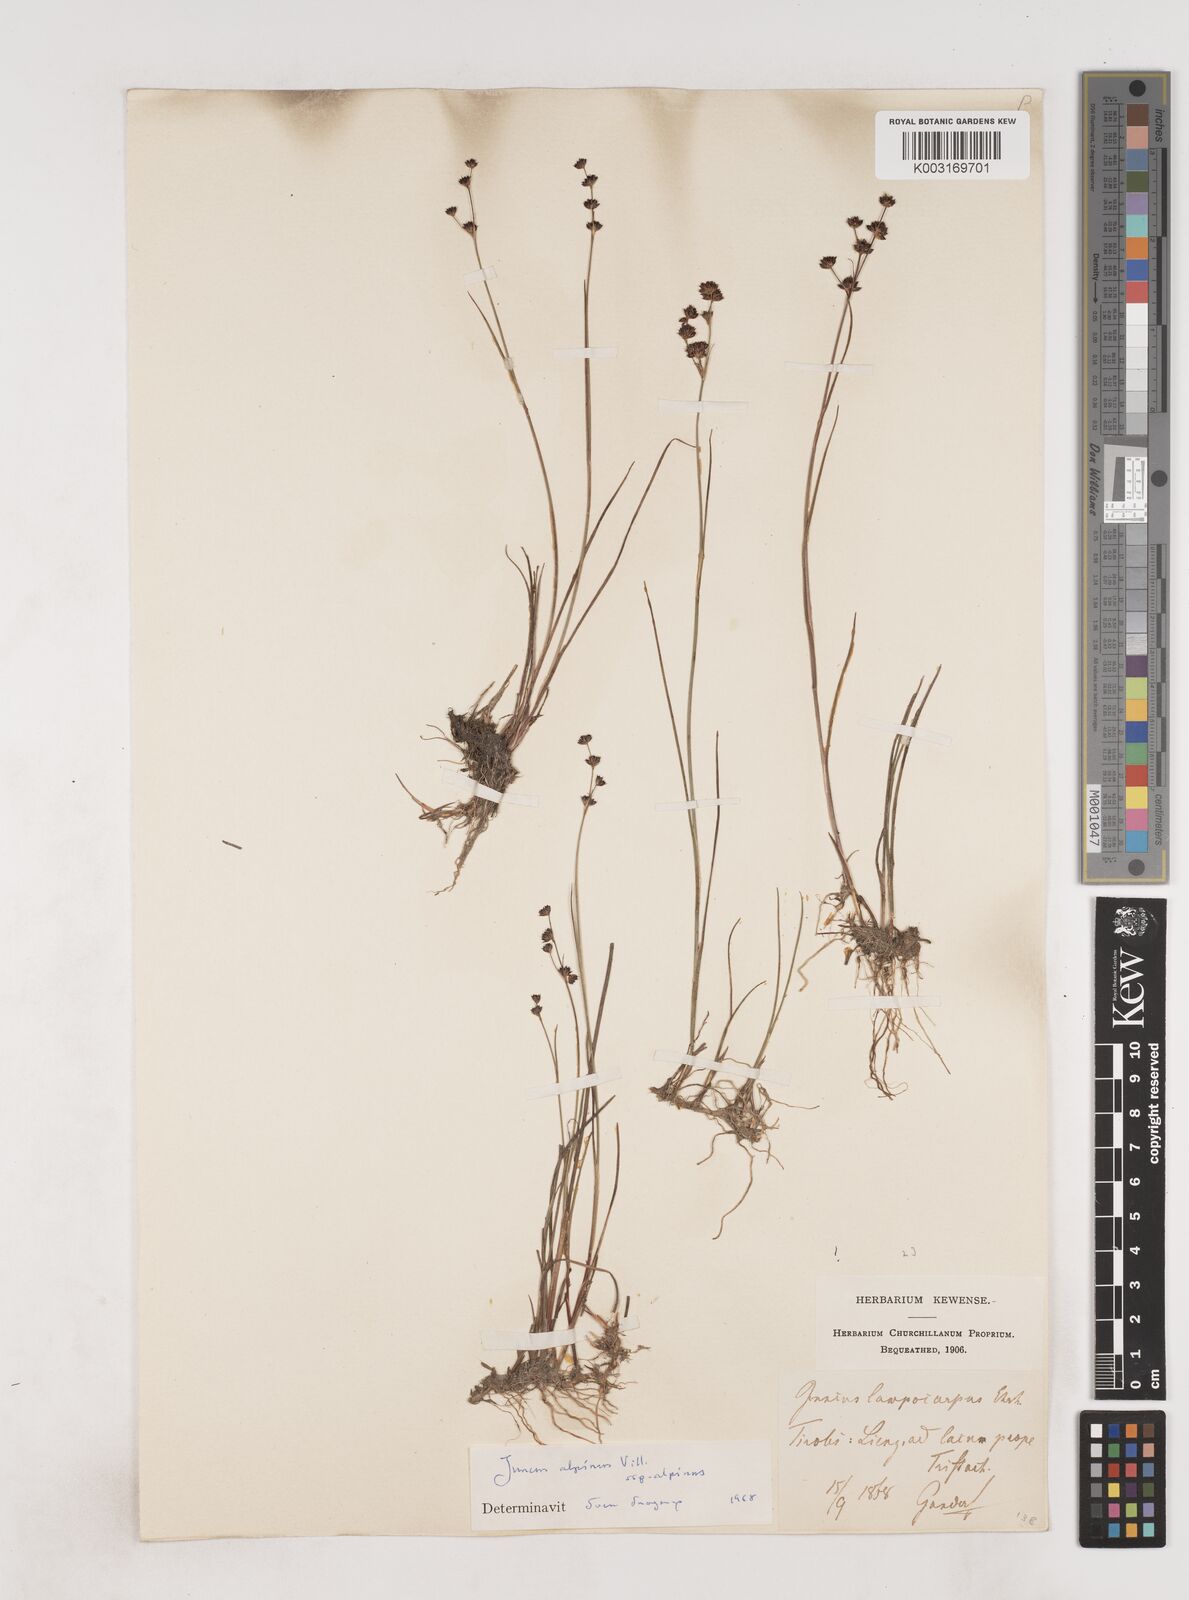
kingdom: Plantae
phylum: Tracheophyta
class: Liliopsida
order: Poales
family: Juncaceae
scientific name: Juncaceae
